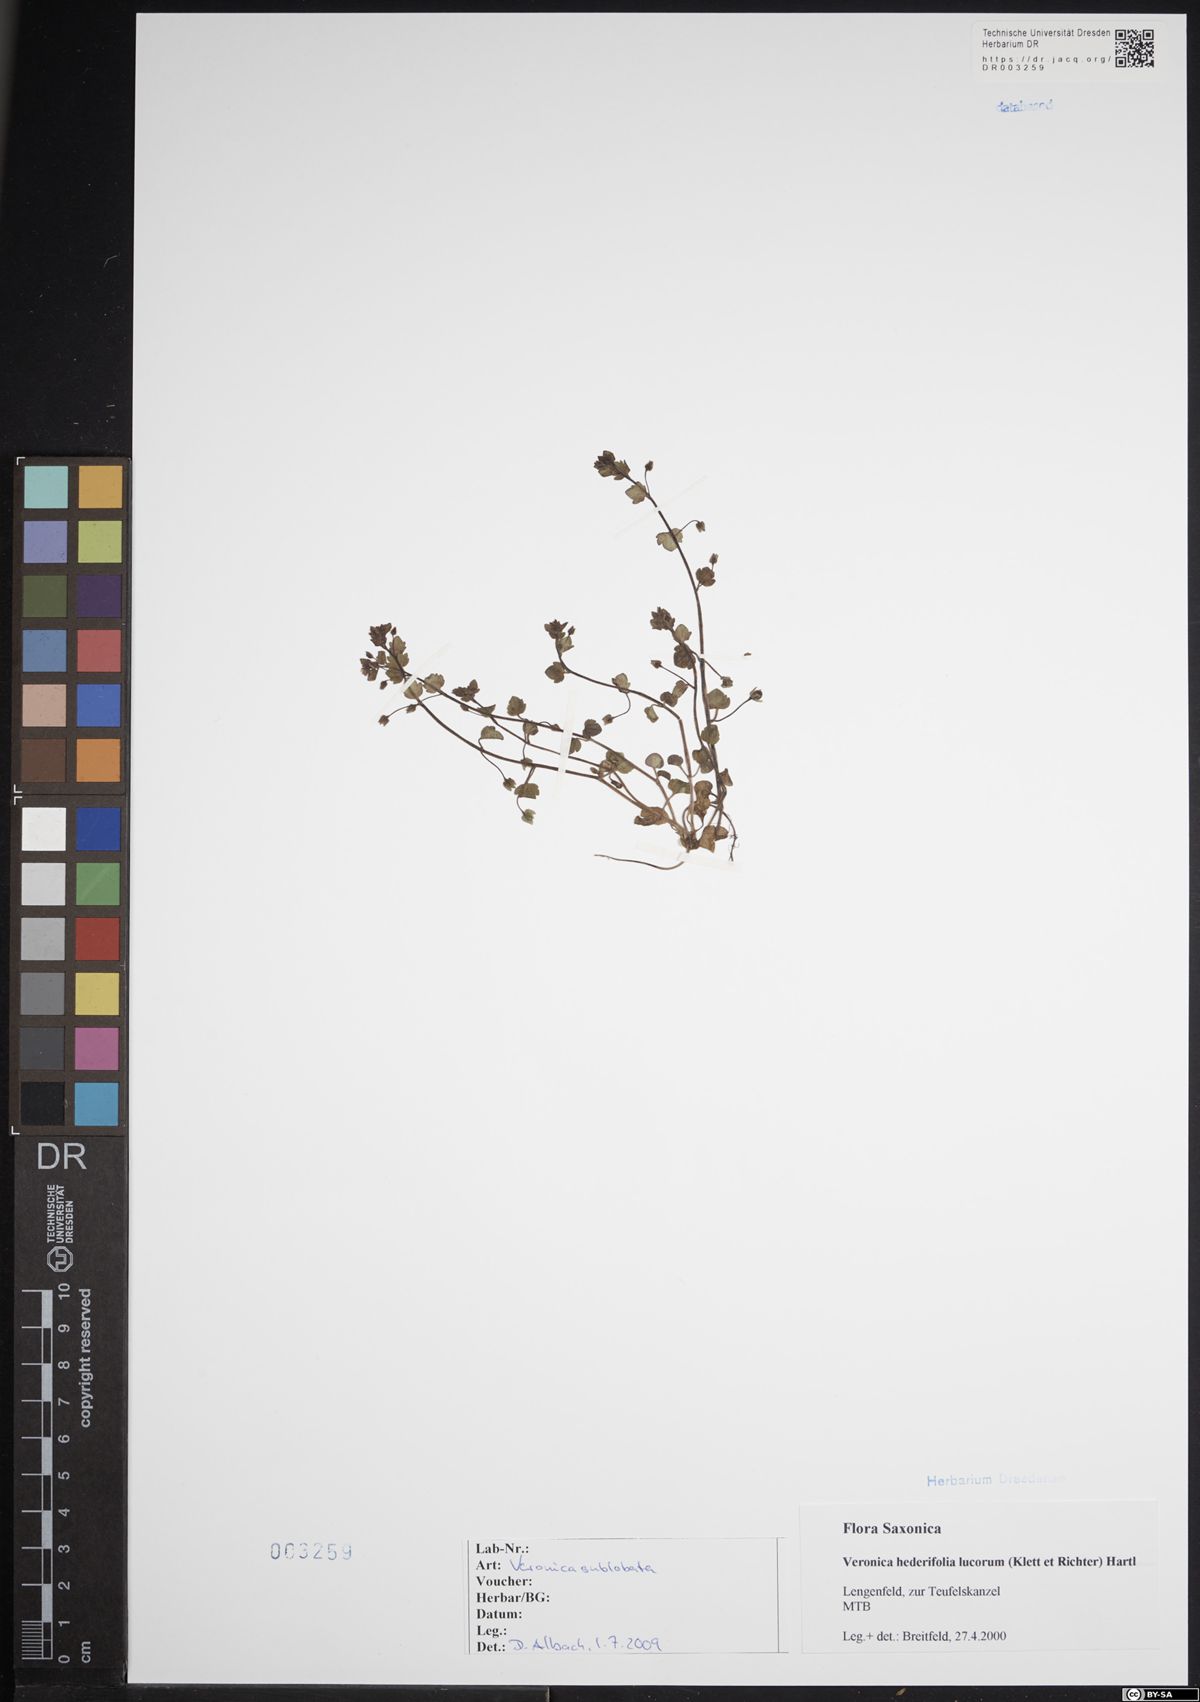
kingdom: Plantae
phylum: Tracheophyta
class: Magnoliopsida
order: Lamiales
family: Plantaginaceae
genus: Veronica
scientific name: Veronica sublobata
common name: False ivy-leaved speedwell
